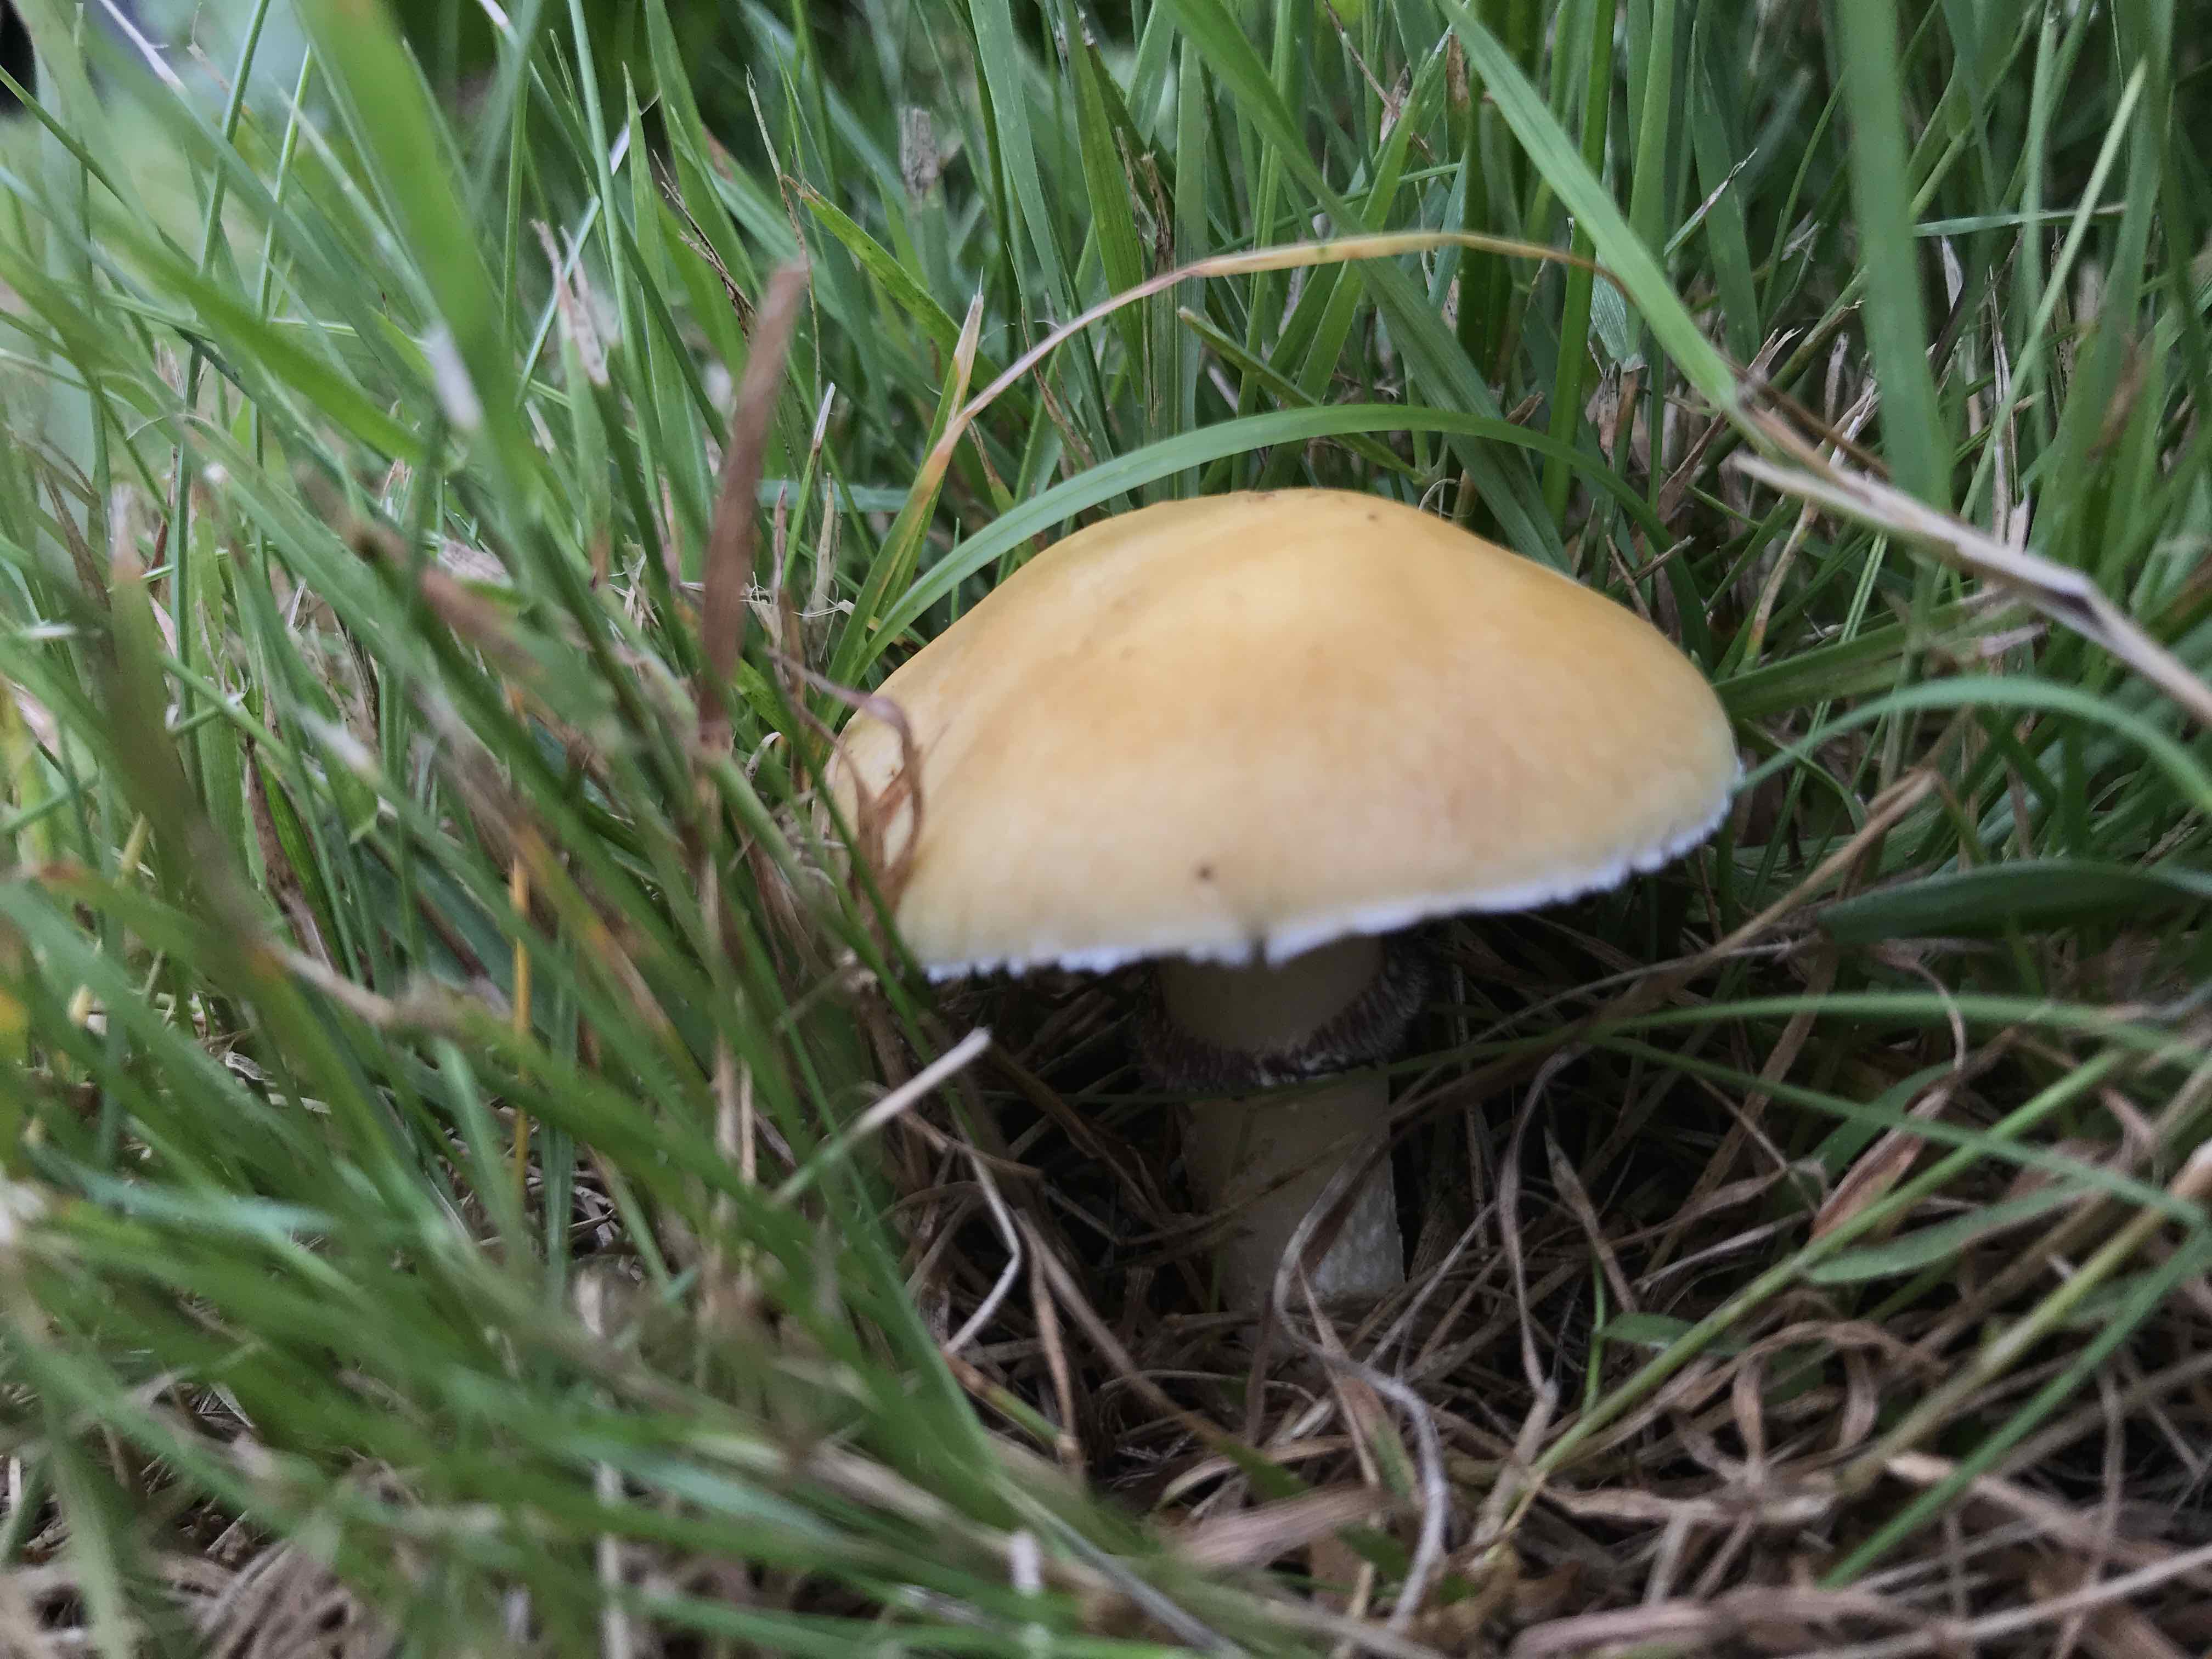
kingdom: Fungi
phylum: Basidiomycota
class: Agaricomycetes
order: Agaricales
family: Hymenogastraceae
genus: Psilocybe
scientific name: Psilocybe coronilla
